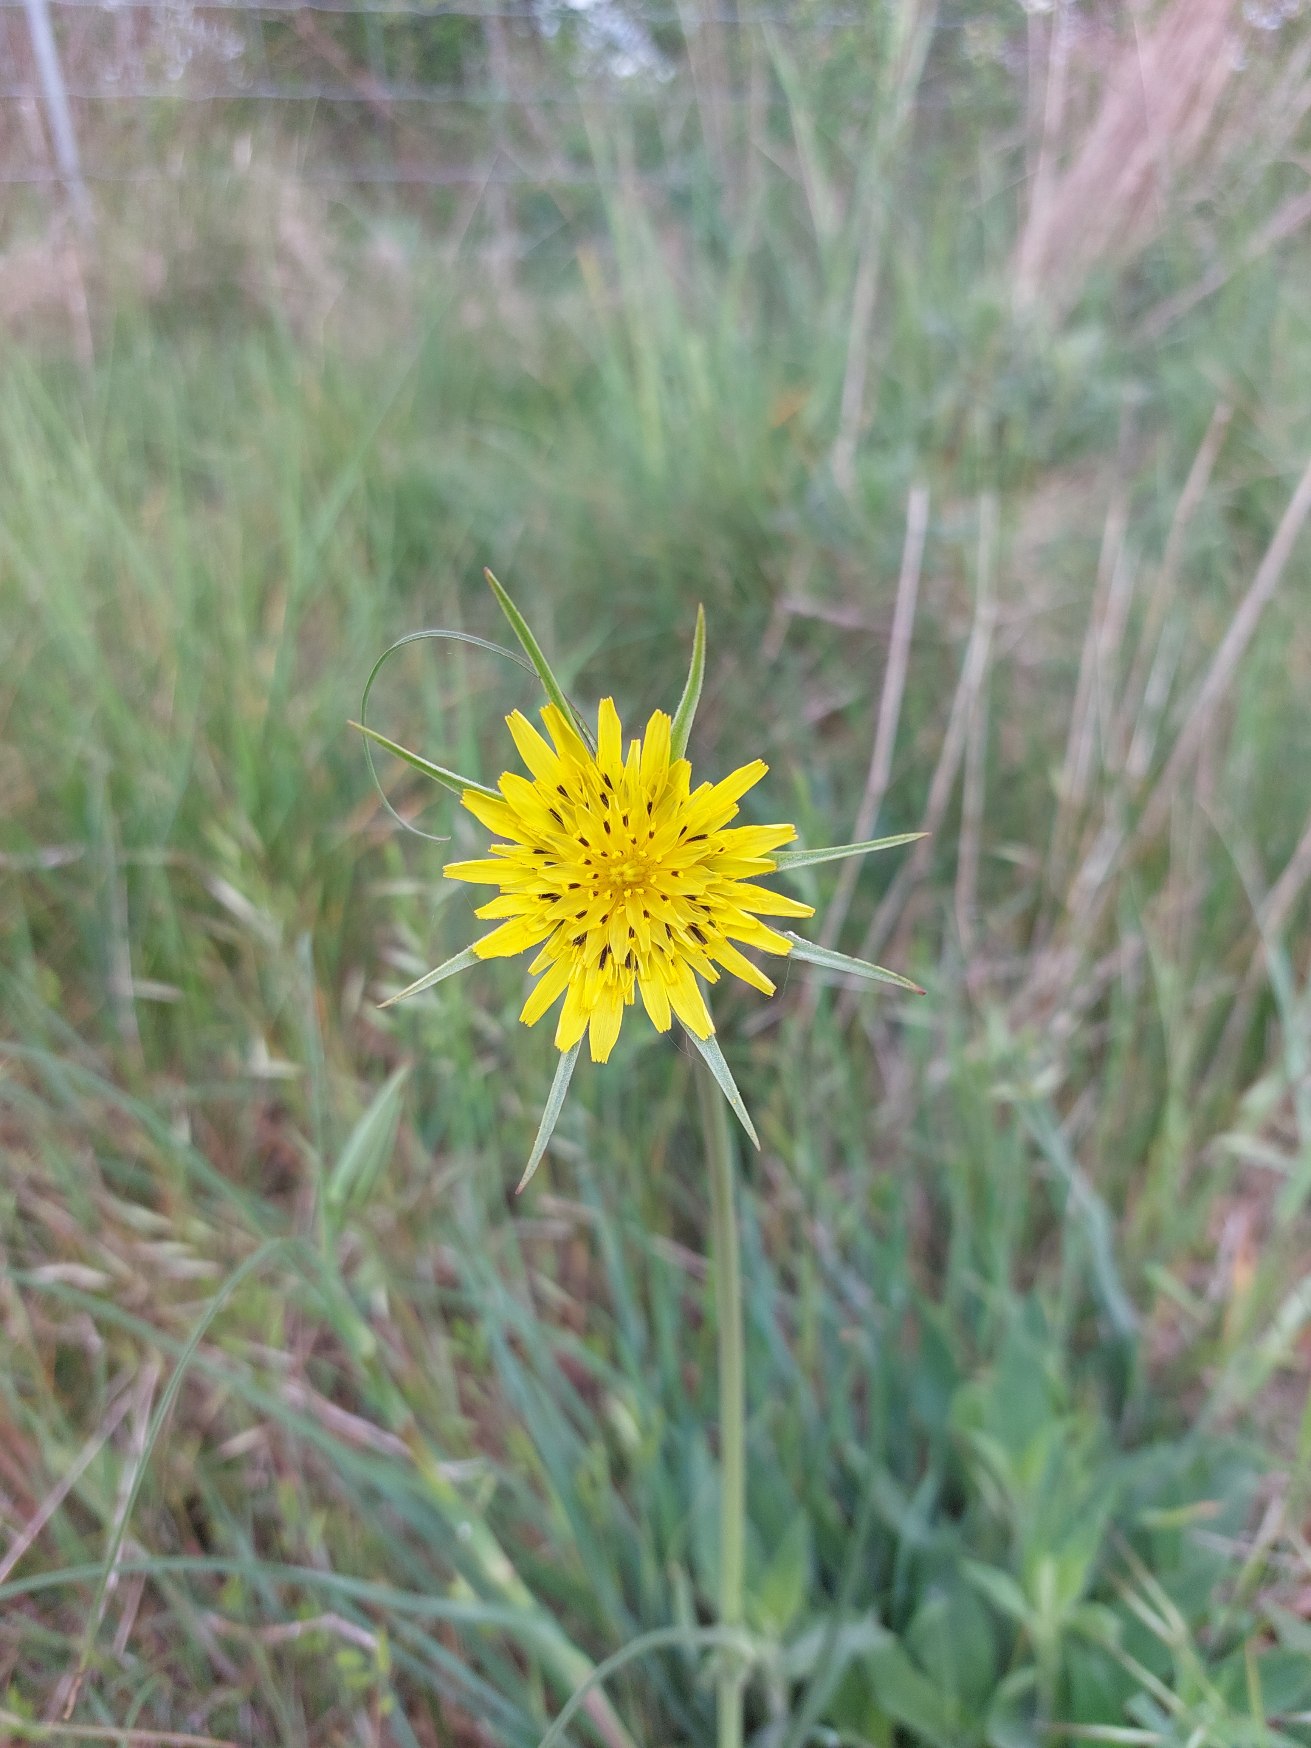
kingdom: Plantae
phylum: Tracheophyta
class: Magnoliopsida
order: Asterales
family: Asteraceae
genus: Tragopogon
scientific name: Tragopogon minor
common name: Småkronet gedeskæg
